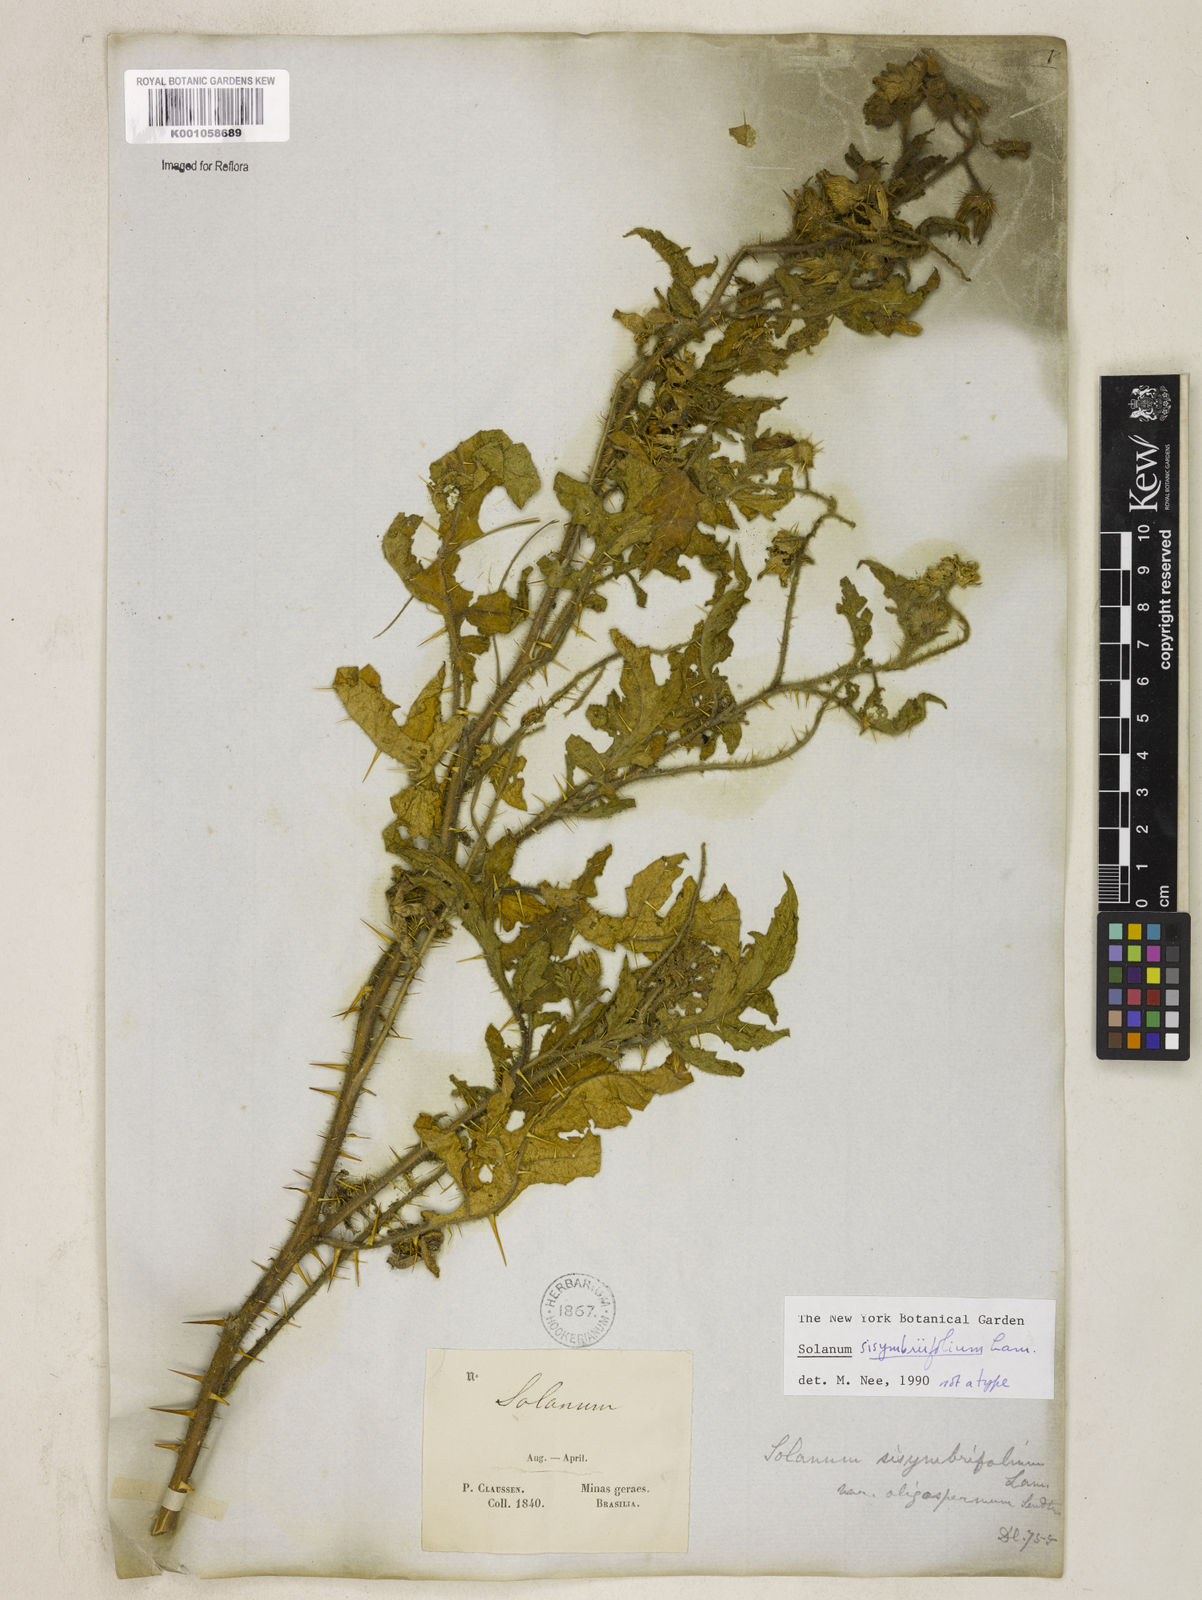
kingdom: Plantae
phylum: Tracheophyta
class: Magnoliopsida
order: Solanales
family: Solanaceae
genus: Solanum
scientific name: Solanum sisymbriifolium
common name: Red buffalo-bur
